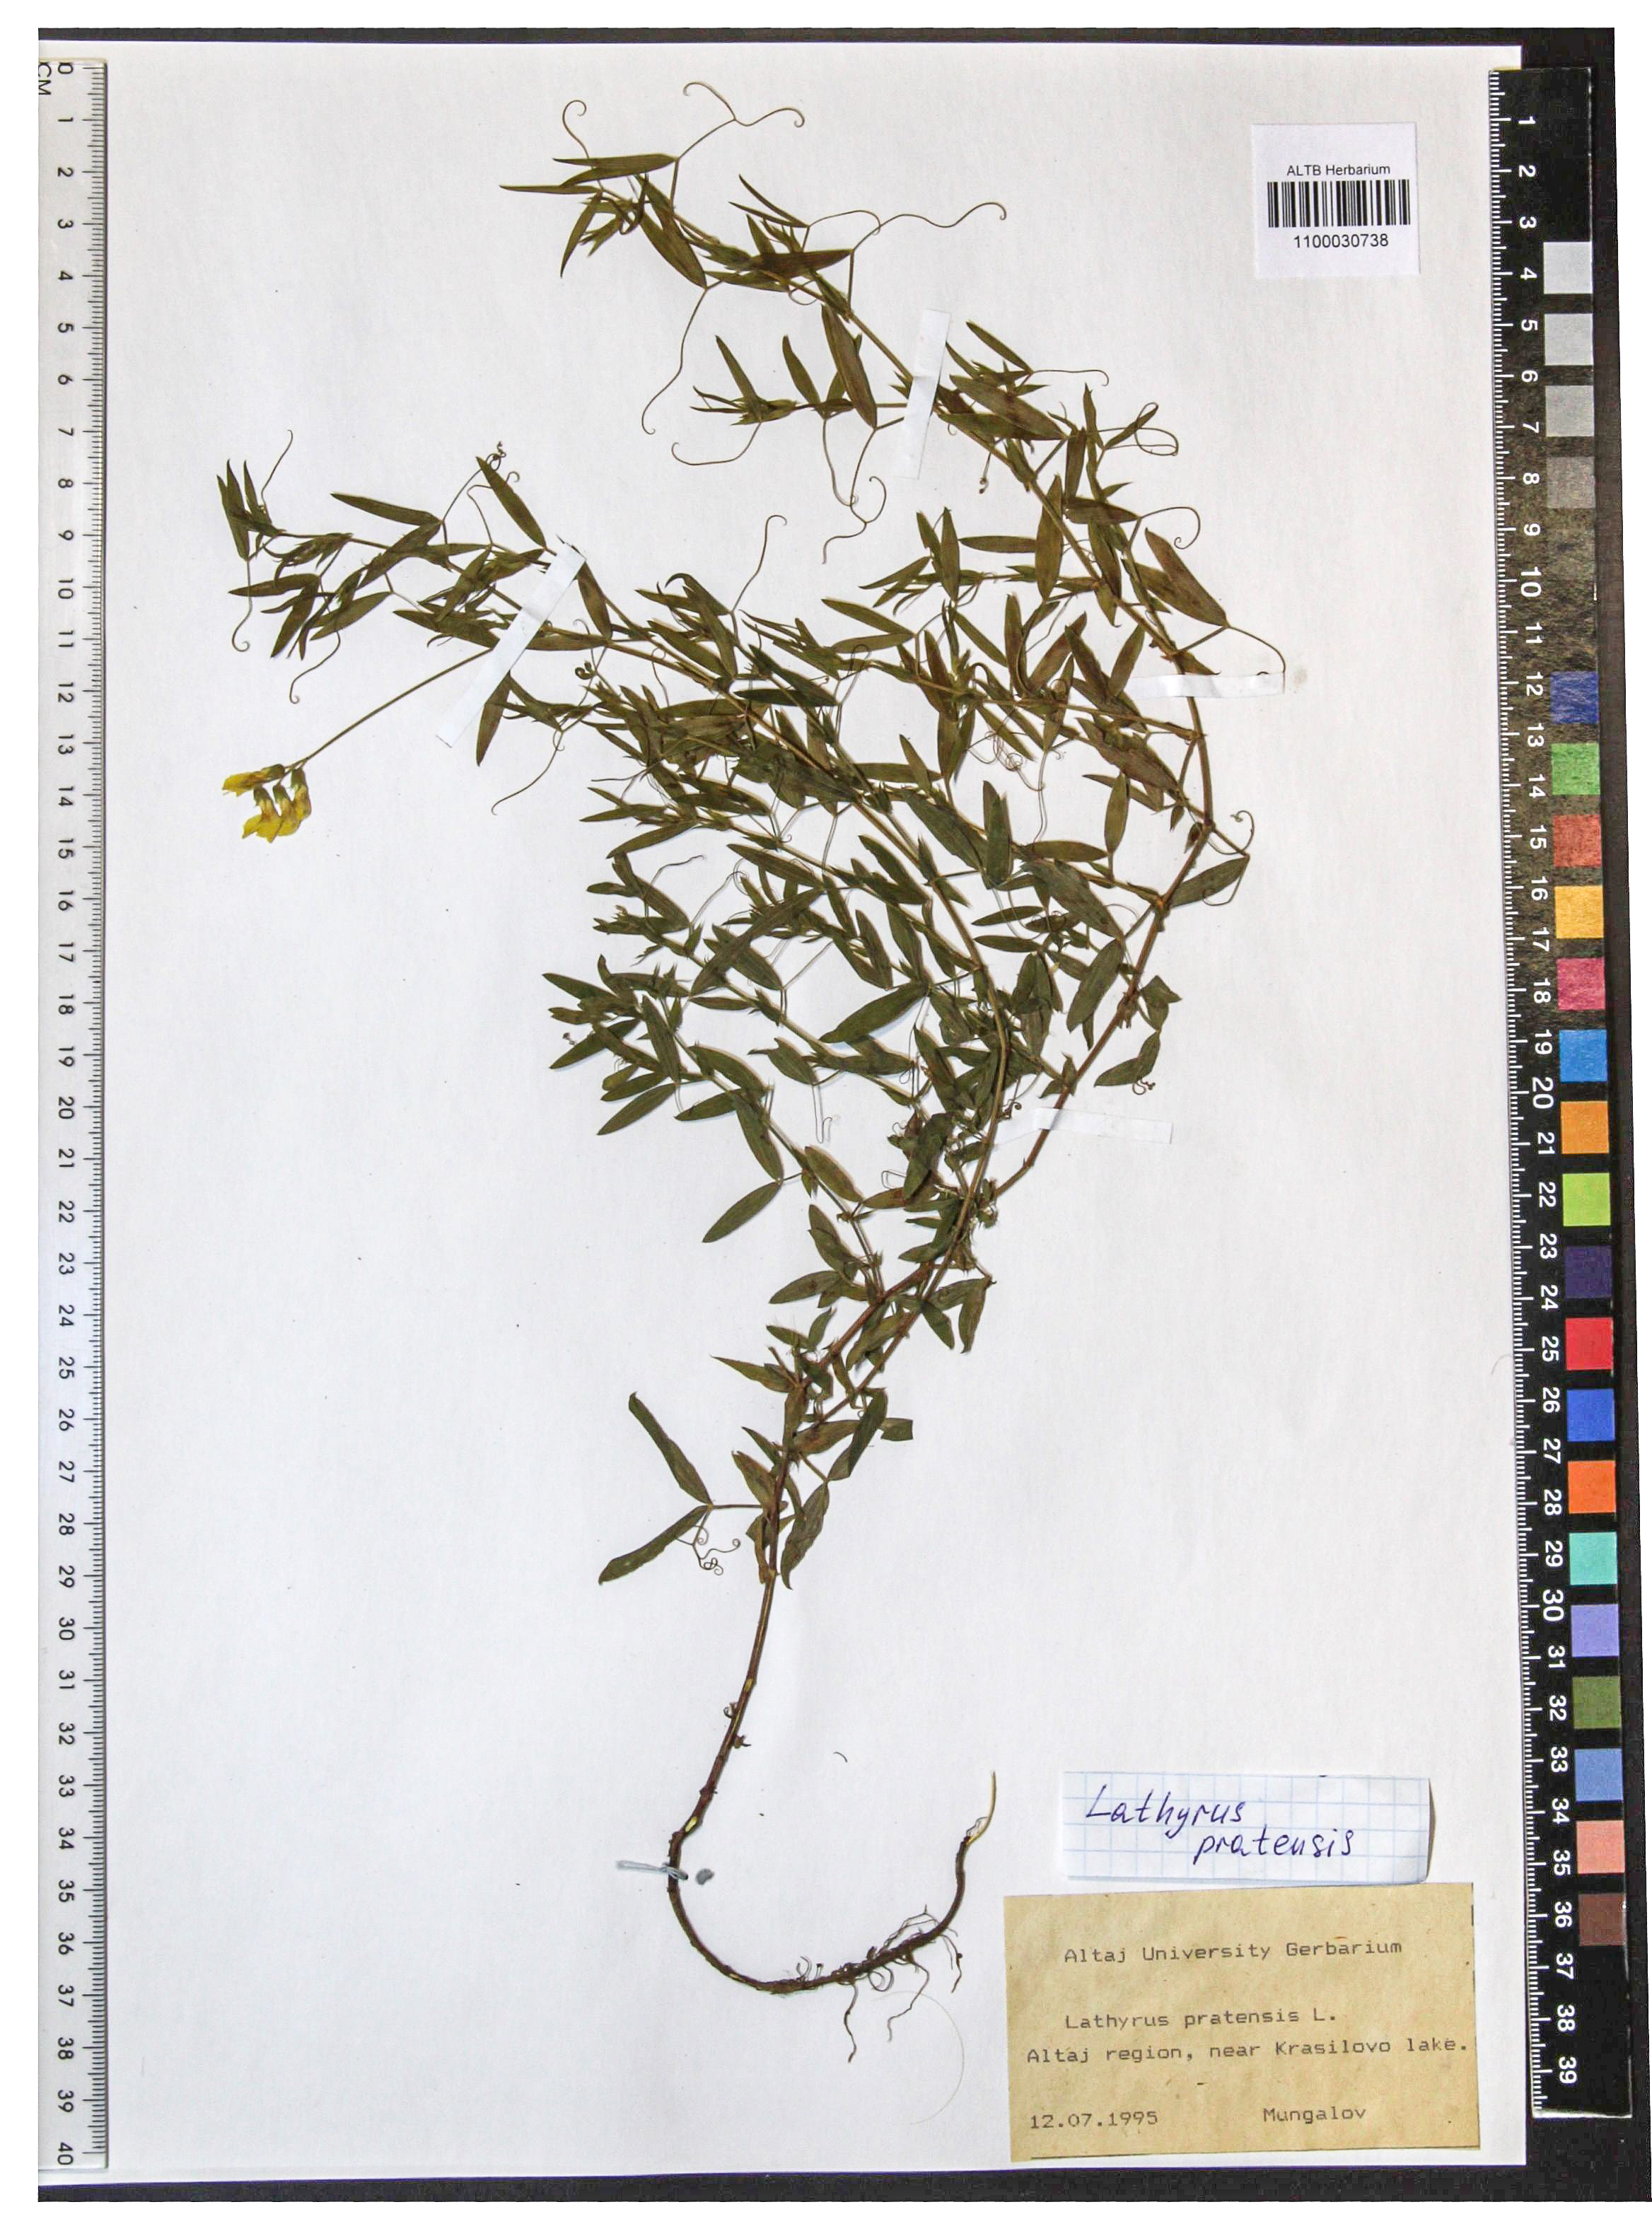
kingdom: Plantae
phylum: Tracheophyta
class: Magnoliopsida
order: Fabales
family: Fabaceae
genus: Lathyrus
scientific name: Lathyrus pratensis
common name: Meadow vetchling
